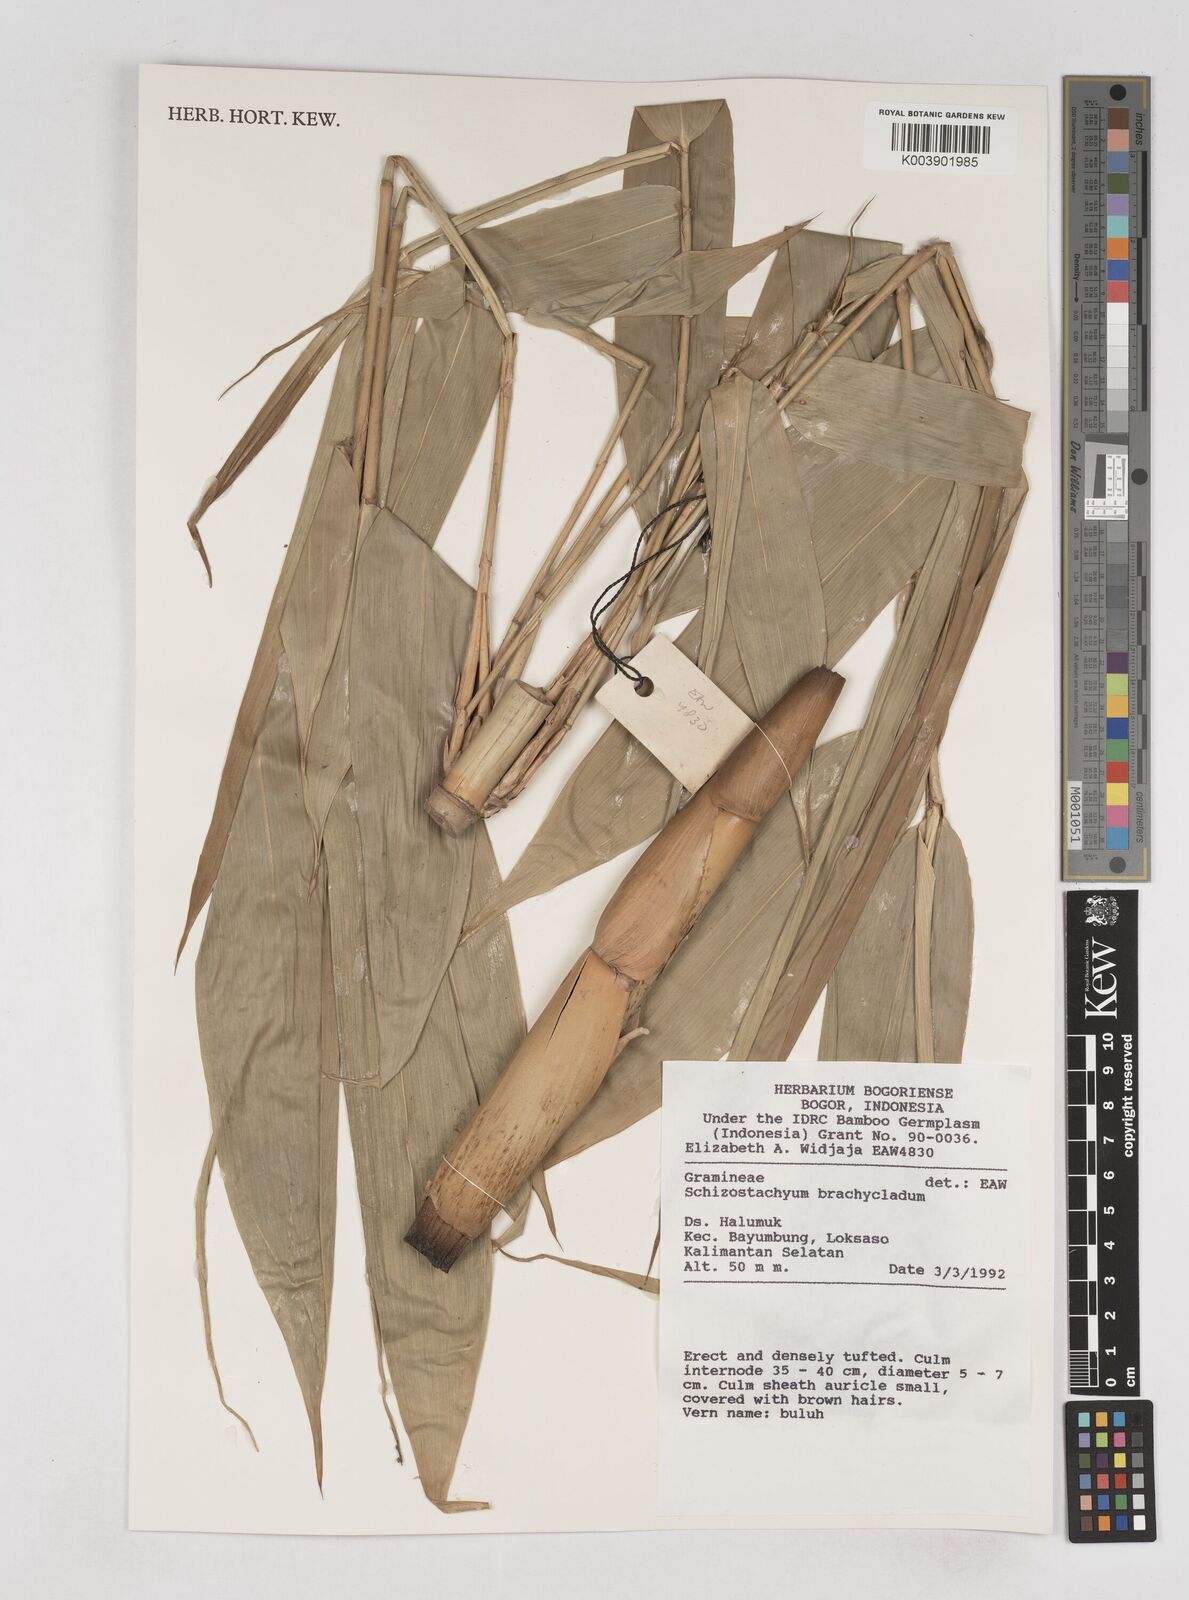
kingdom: Plantae
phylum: Tracheophyta
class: Liliopsida
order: Poales
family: Poaceae
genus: Schizostachyum
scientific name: Schizostachyum
